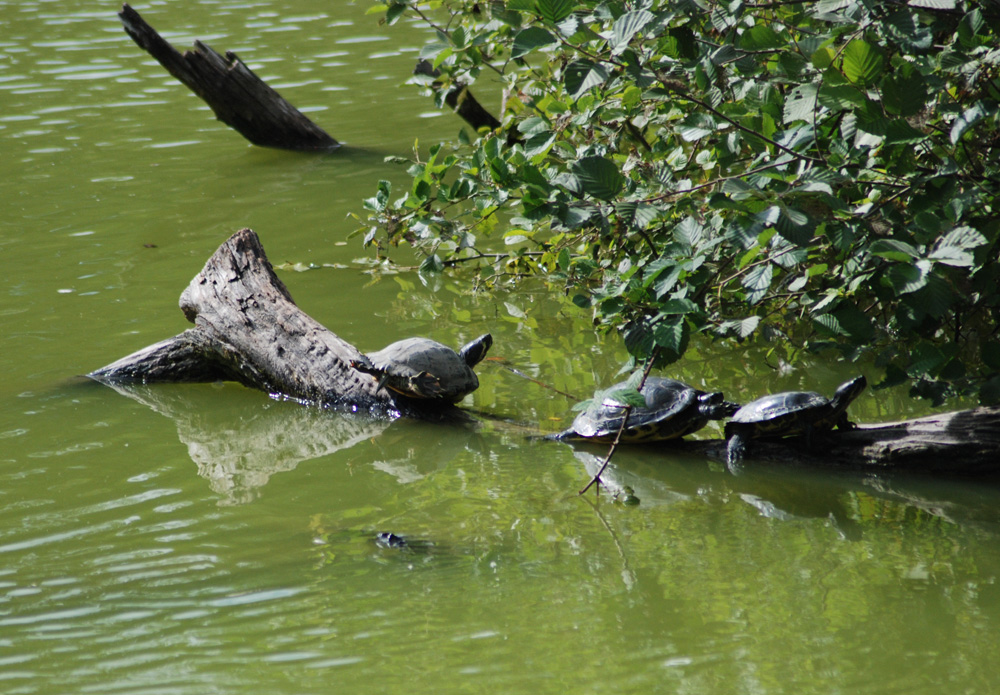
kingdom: Animalia
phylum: Chordata
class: Testudines
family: Emydidae
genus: Trachemys
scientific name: Trachemys scripta
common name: Slider
